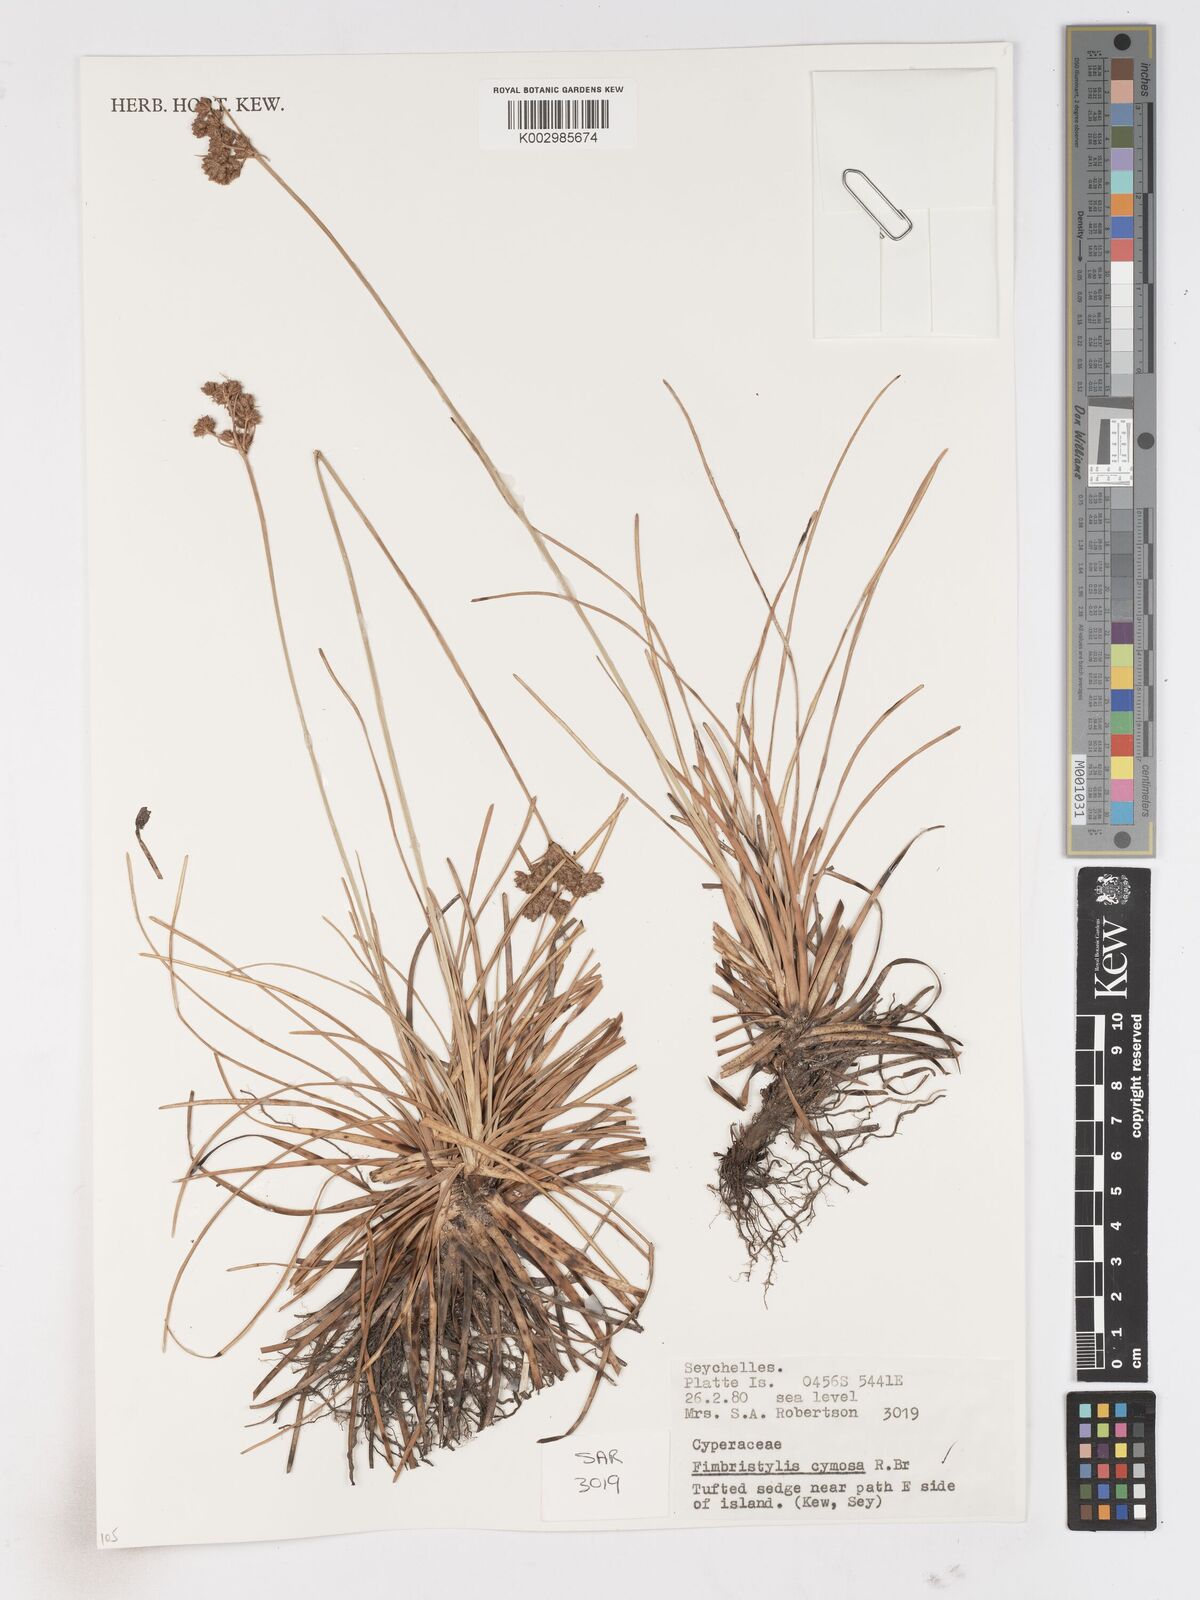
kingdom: Plantae
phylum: Tracheophyta
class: Liliopsida
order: Poales
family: Cyperaceae
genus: Fimbristylis
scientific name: Fimbristylis cymosa
